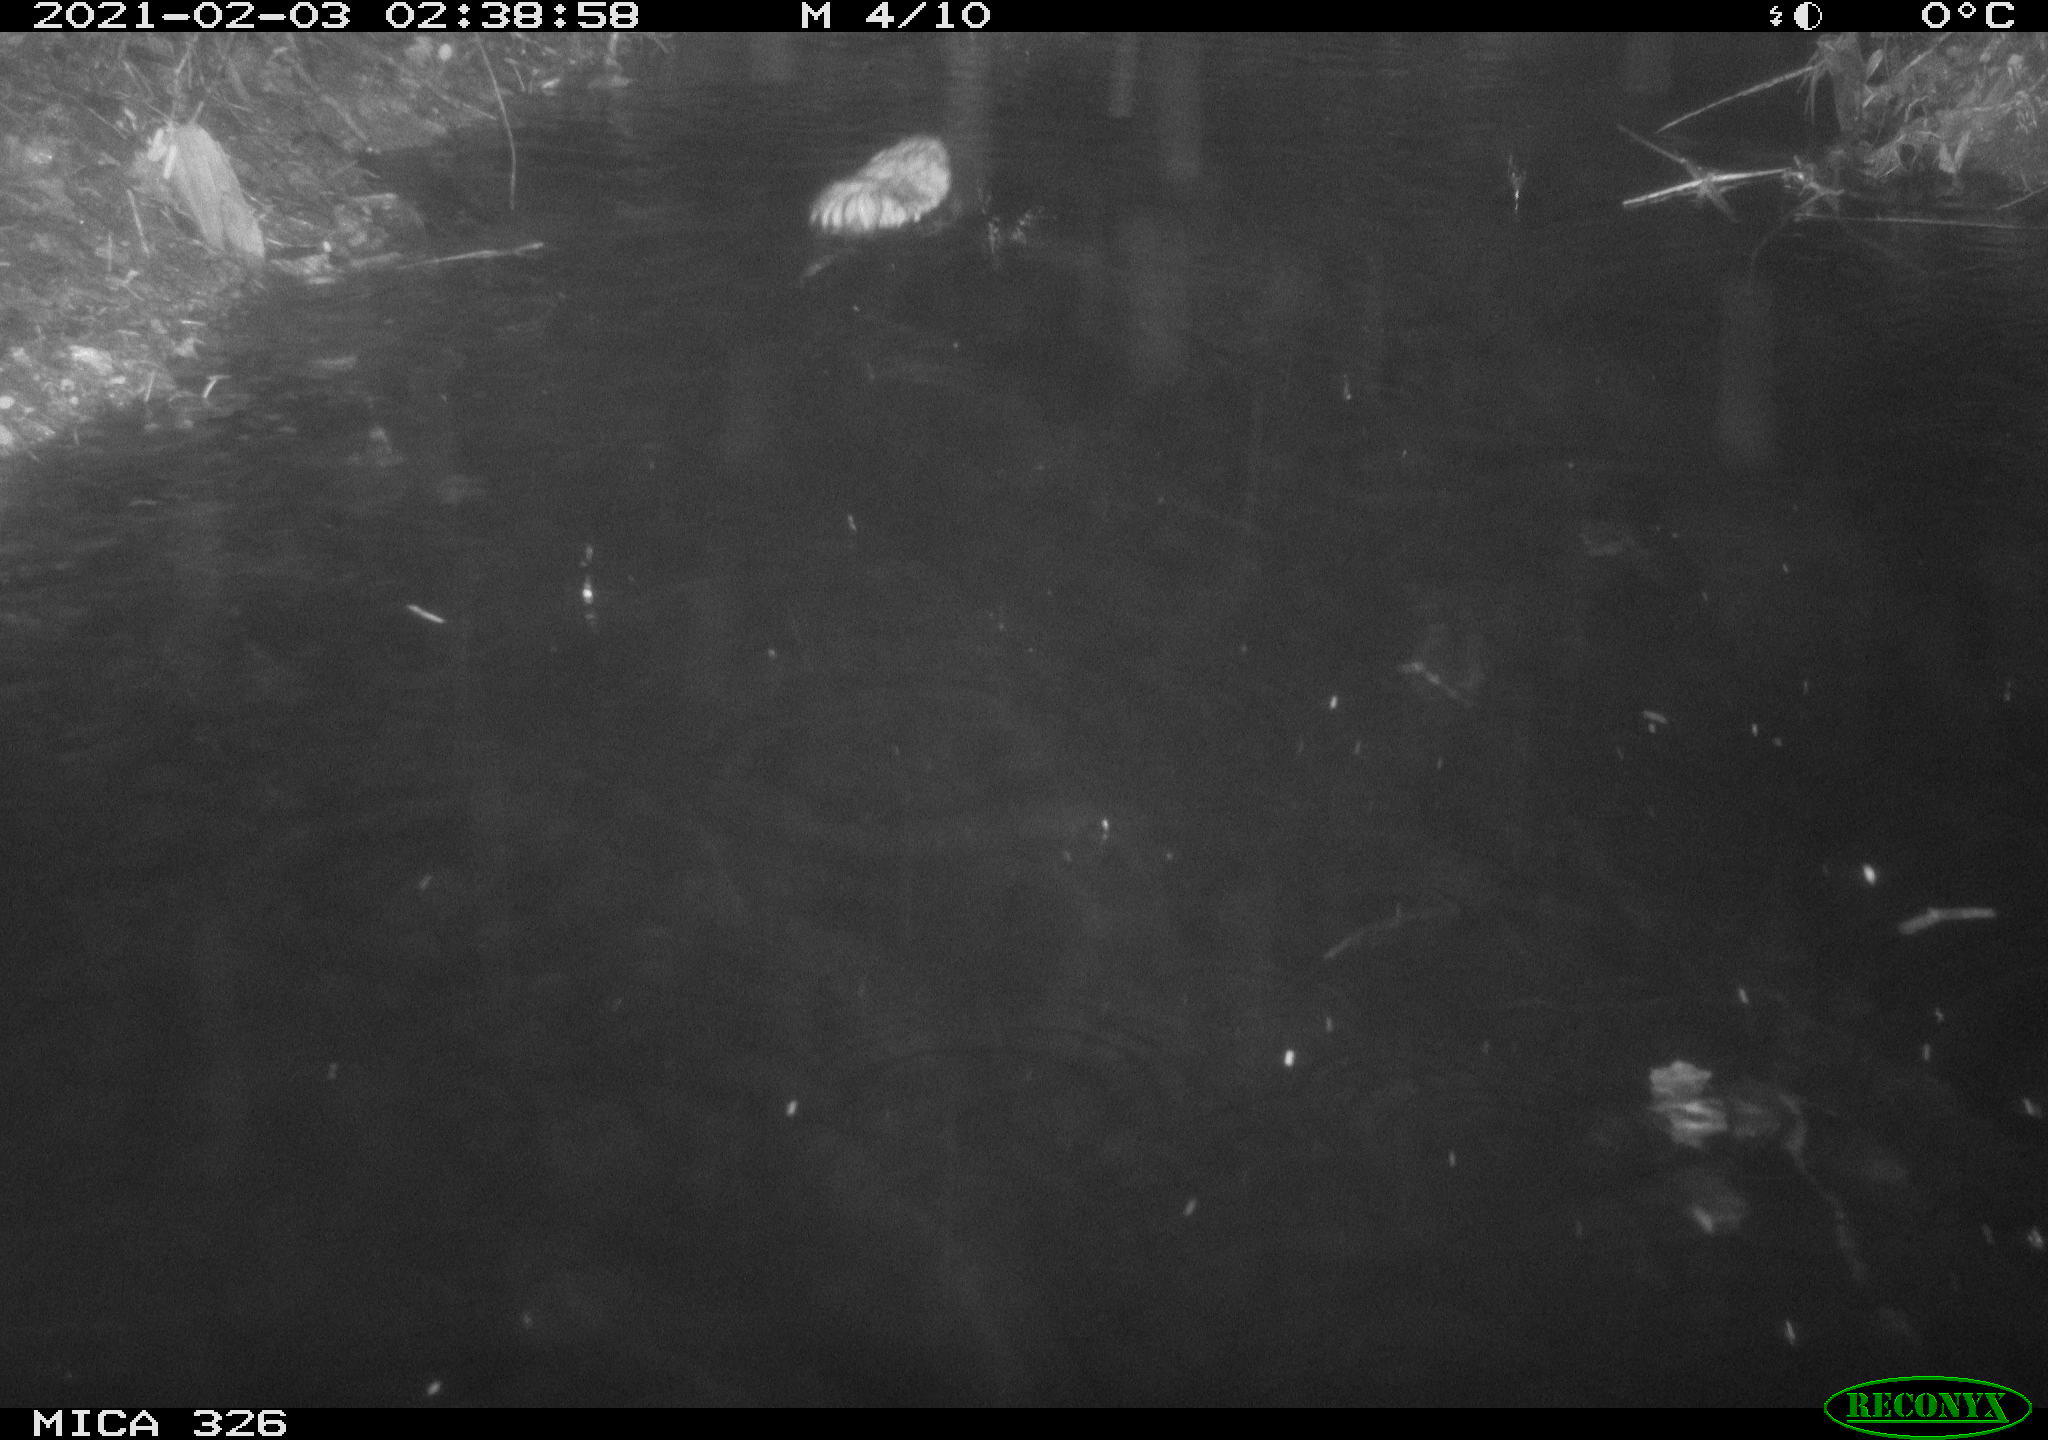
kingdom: Animalia
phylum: Chordata
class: Mammalia
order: Rodentia
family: Cricetidae
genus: Ondatra
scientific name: Ondatra zibethicus
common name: Muskrat
